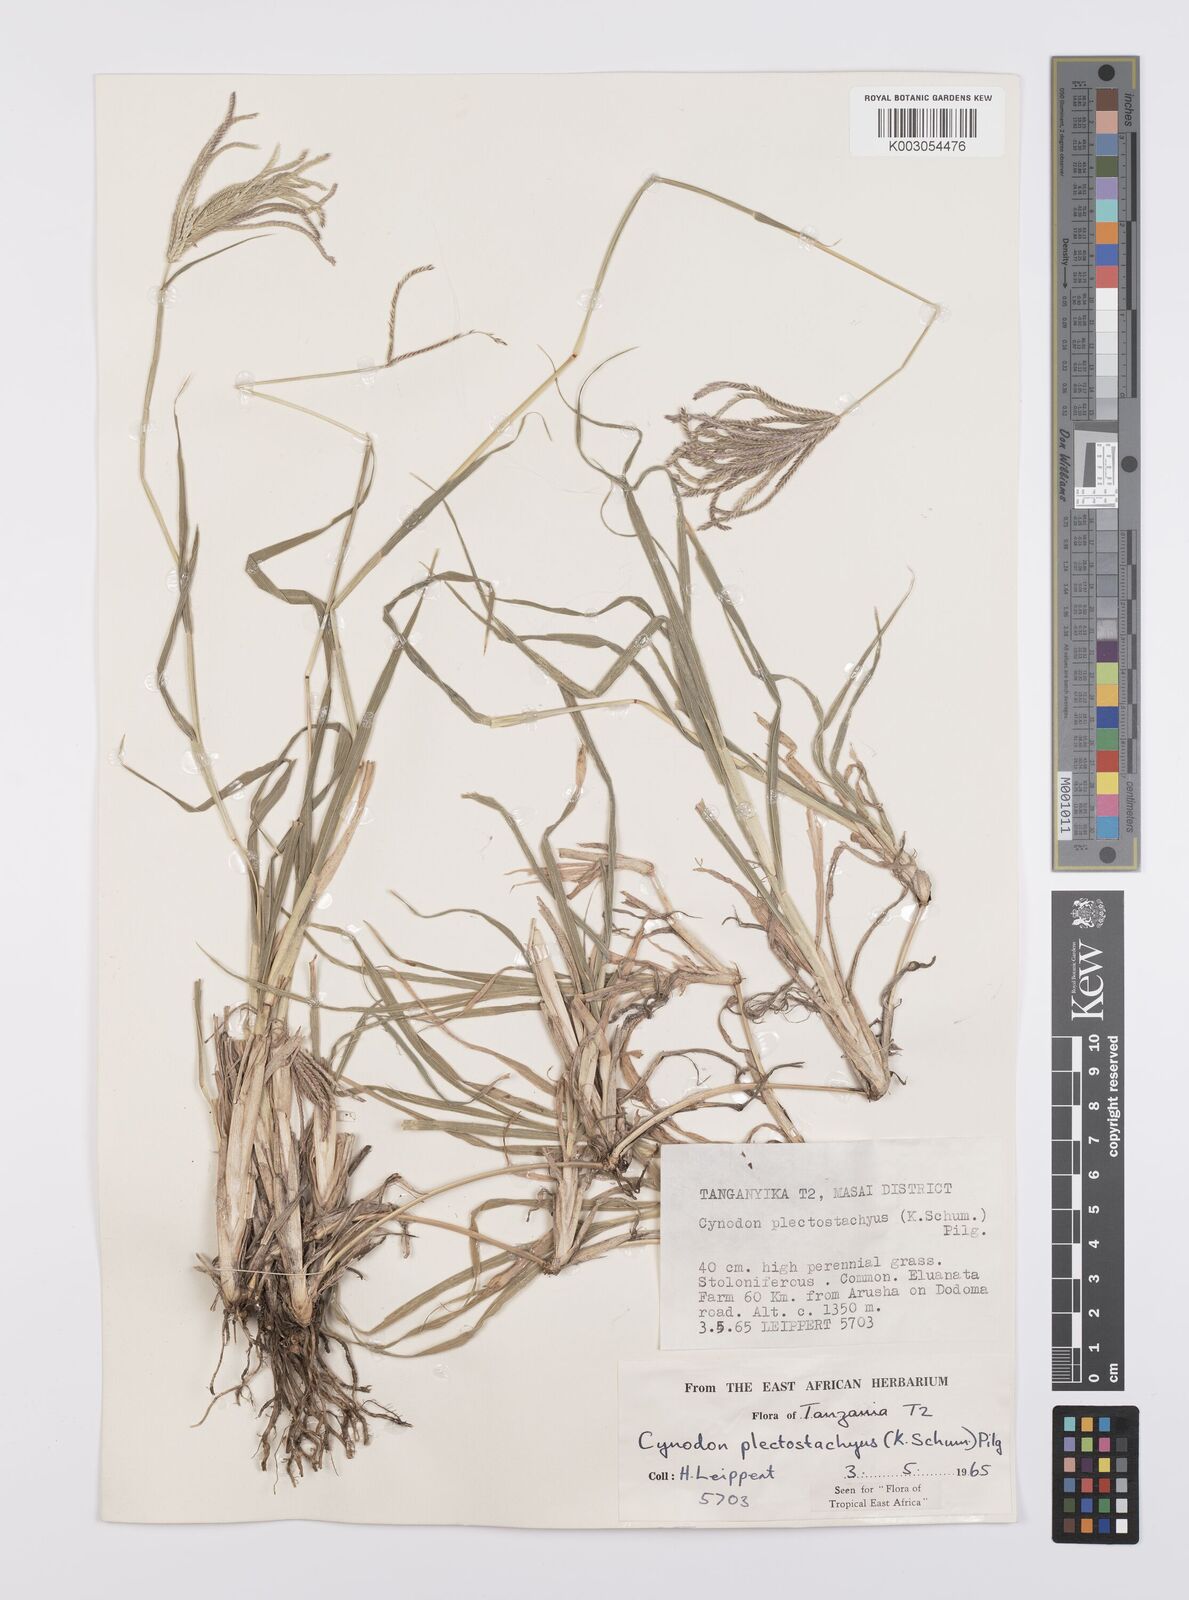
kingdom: Plantae
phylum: Tracheophyta
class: Liliopsida
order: Poales
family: Poaceae
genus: Cynodon
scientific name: Cynodon plectostachyus
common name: Stargrass
